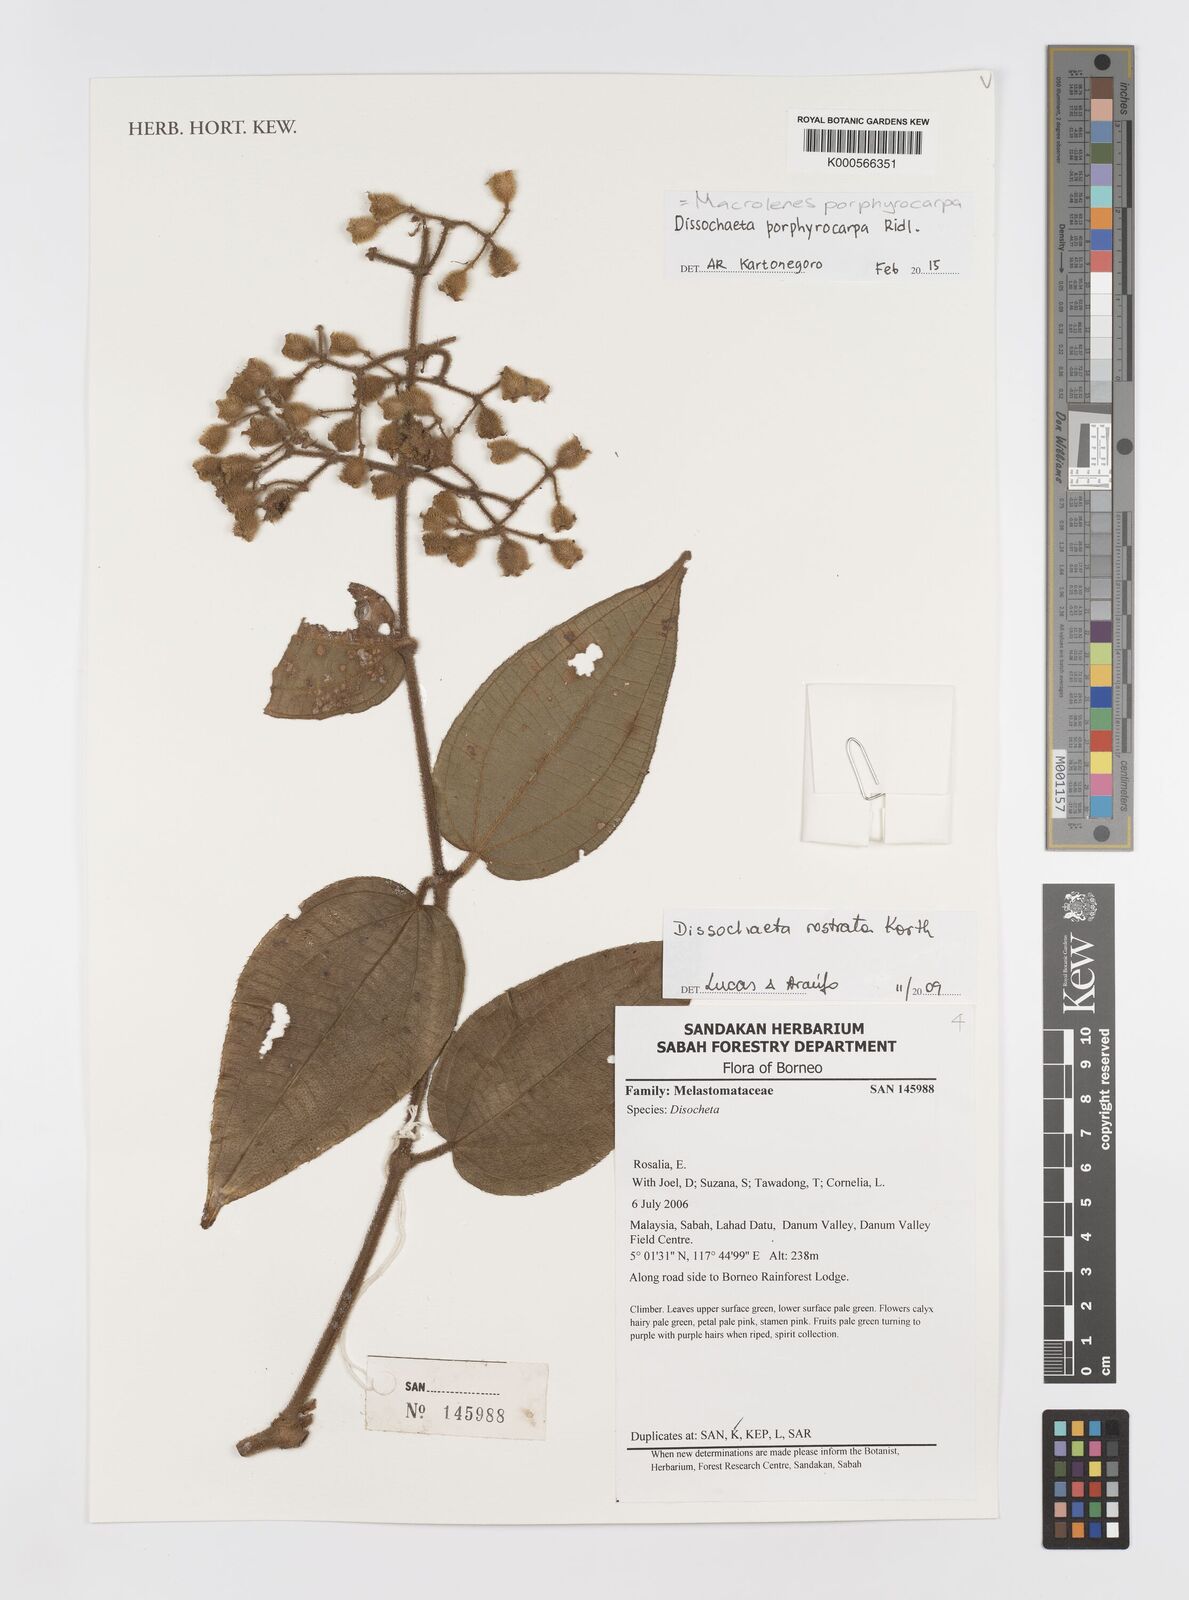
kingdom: Plantae
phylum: Tracheophyta
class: Magnoliopsida
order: Myrtales
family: Melastomataceae
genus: Macrolenes
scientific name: Macrolenes porphyrocarpa
